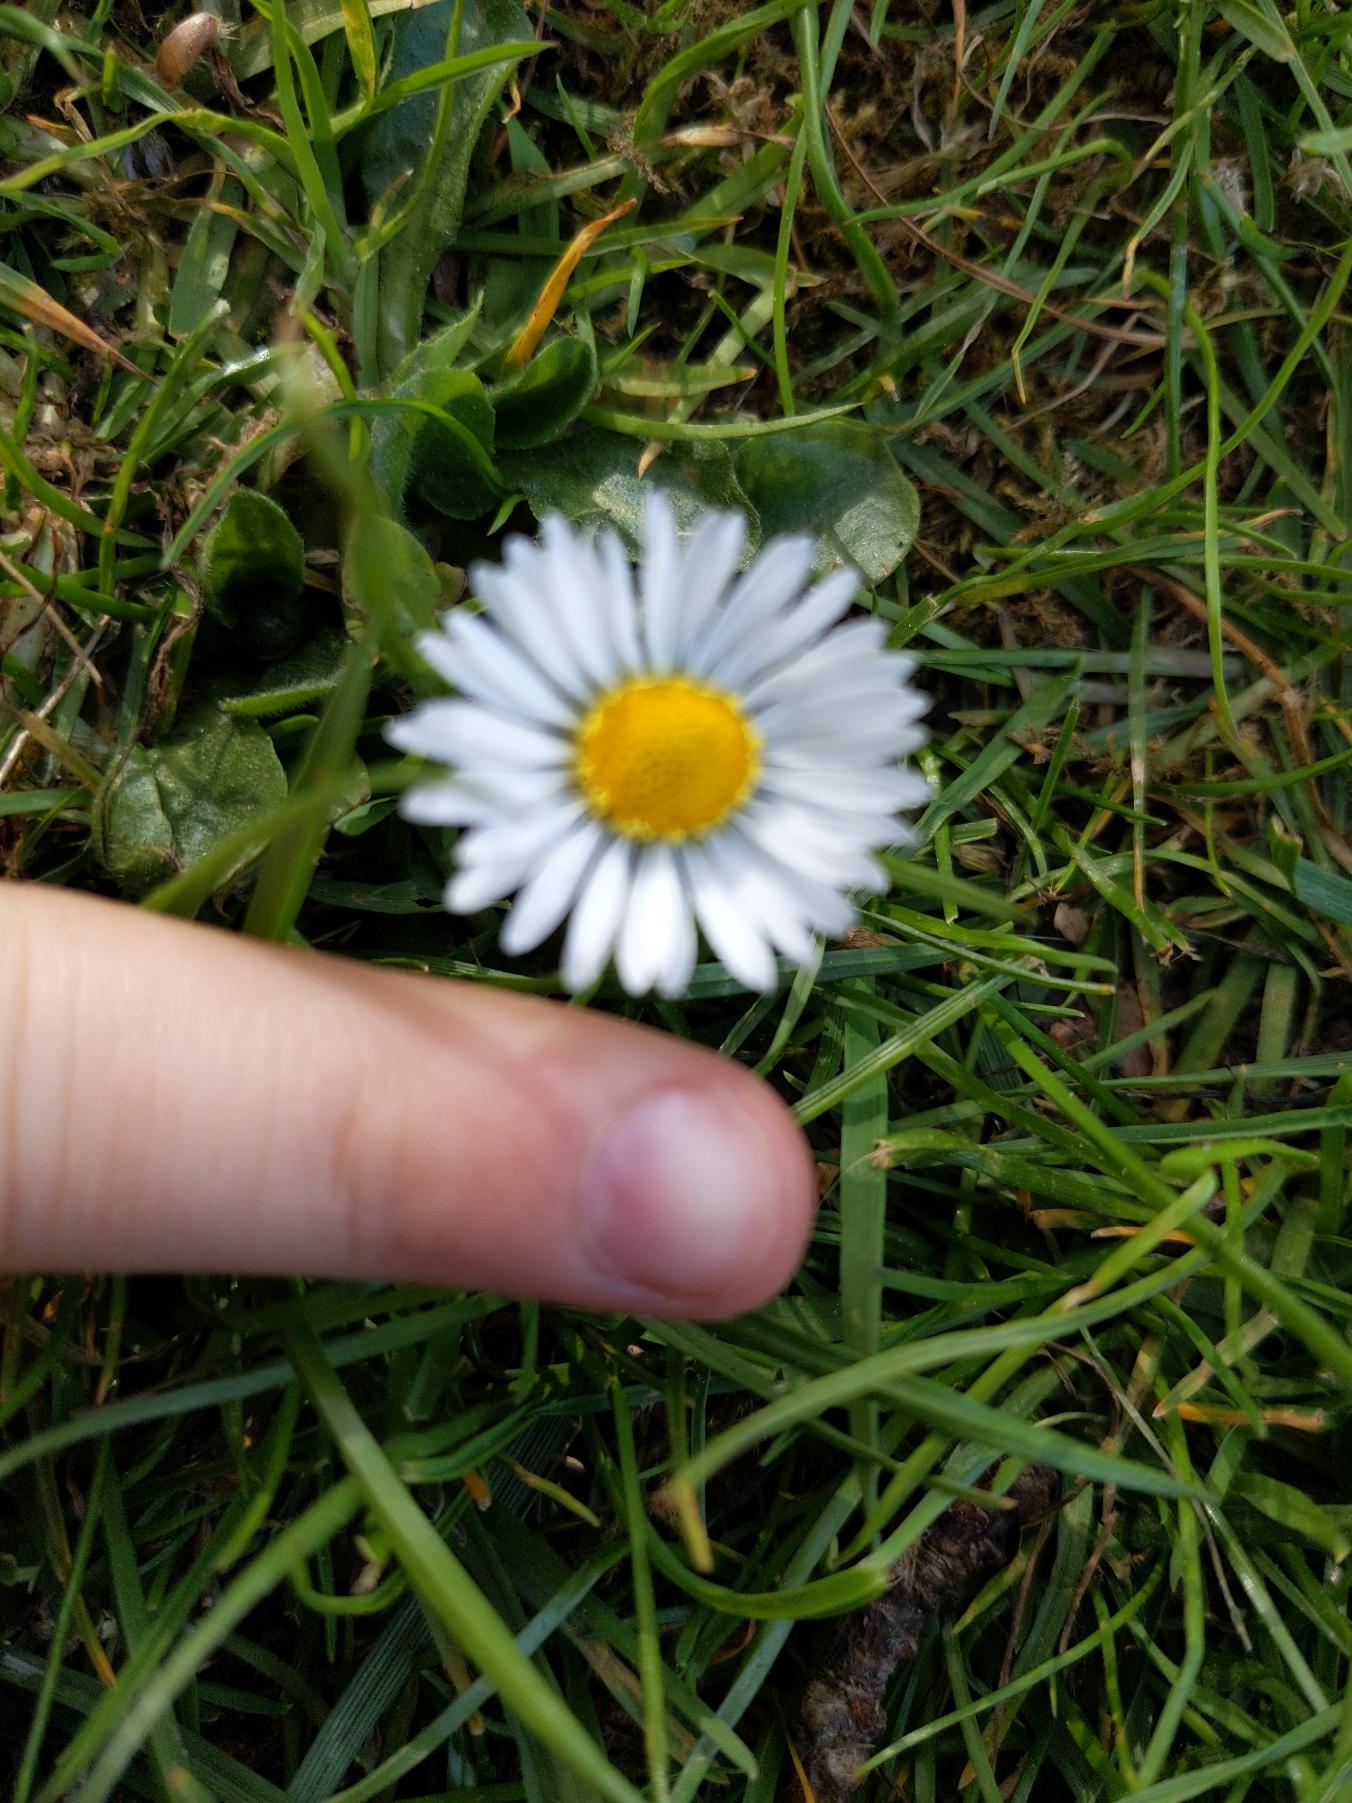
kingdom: Plantae
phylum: Tracheophyta
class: Magnoliopsida
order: Asterales
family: Asteraceae
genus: Bellis
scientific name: Bellis perennis
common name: Tusindfryd
